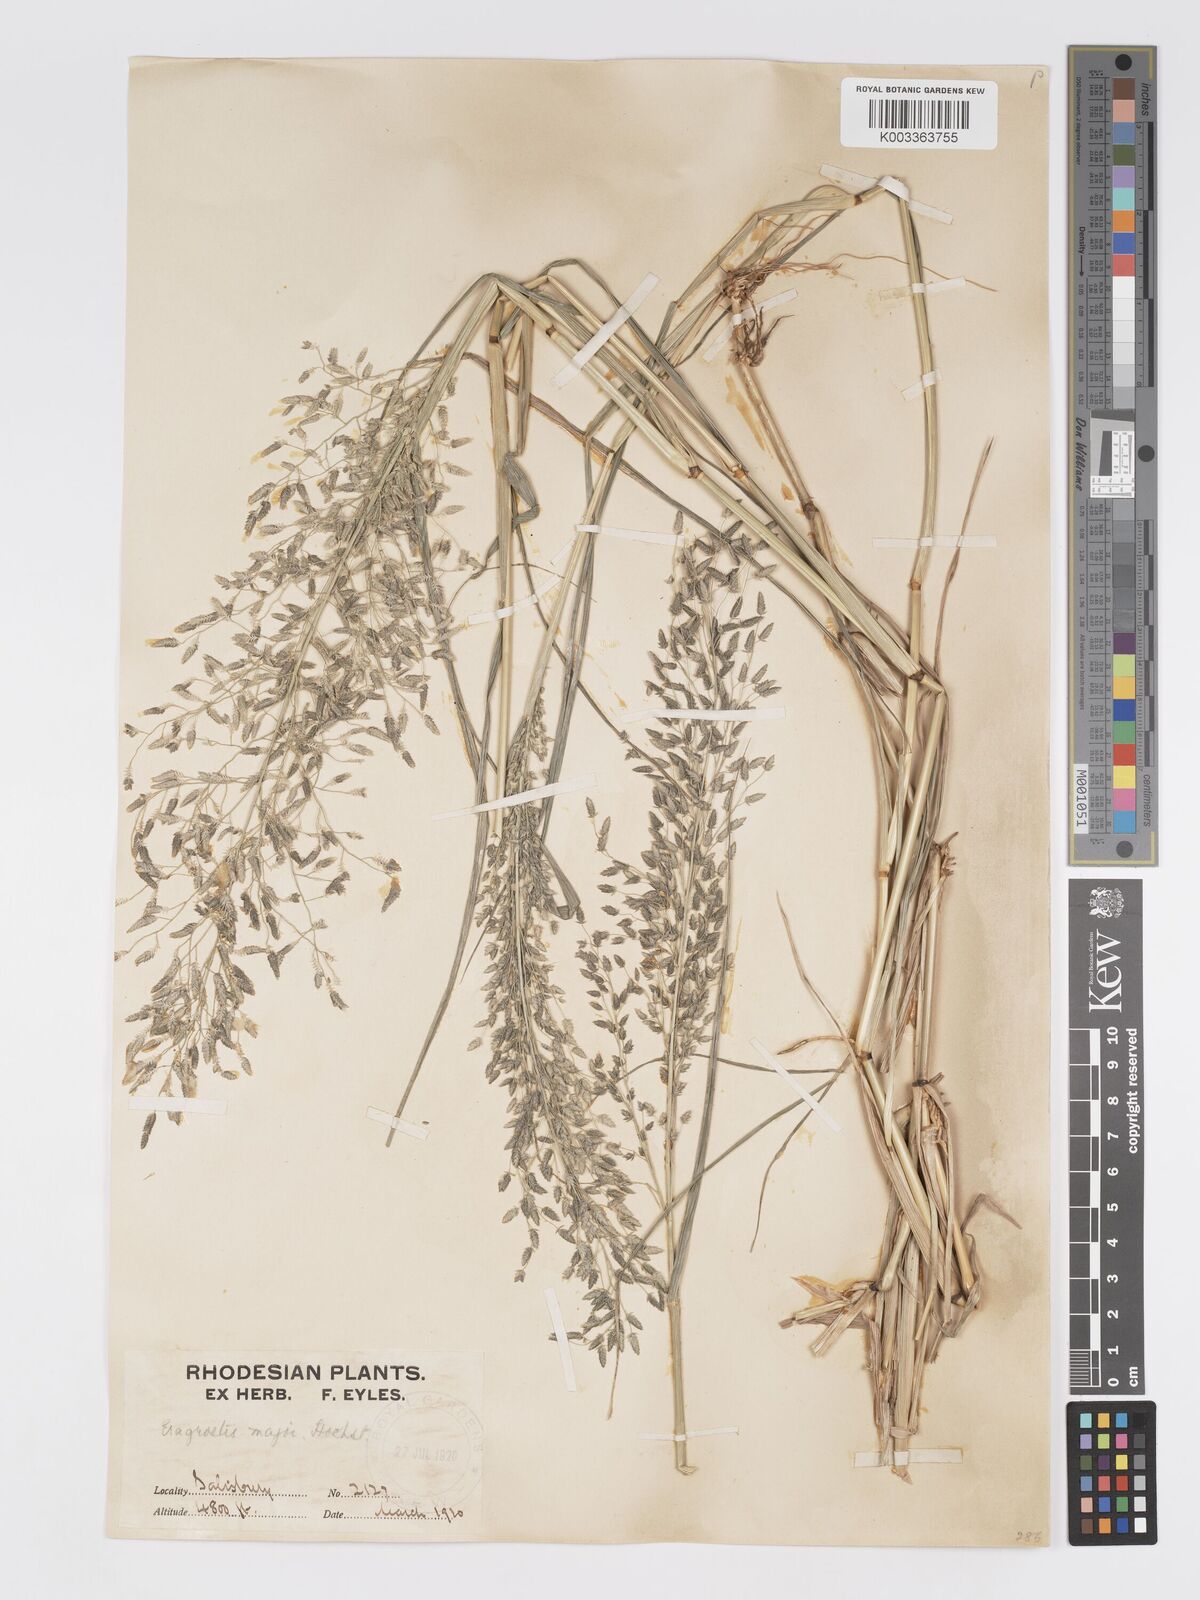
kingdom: Plantae
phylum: Tracheophyta
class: Liliopsida
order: Poales
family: Poaceae
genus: Eragrostis
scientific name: Eragrostis cilianensis
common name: Stinkgrass
